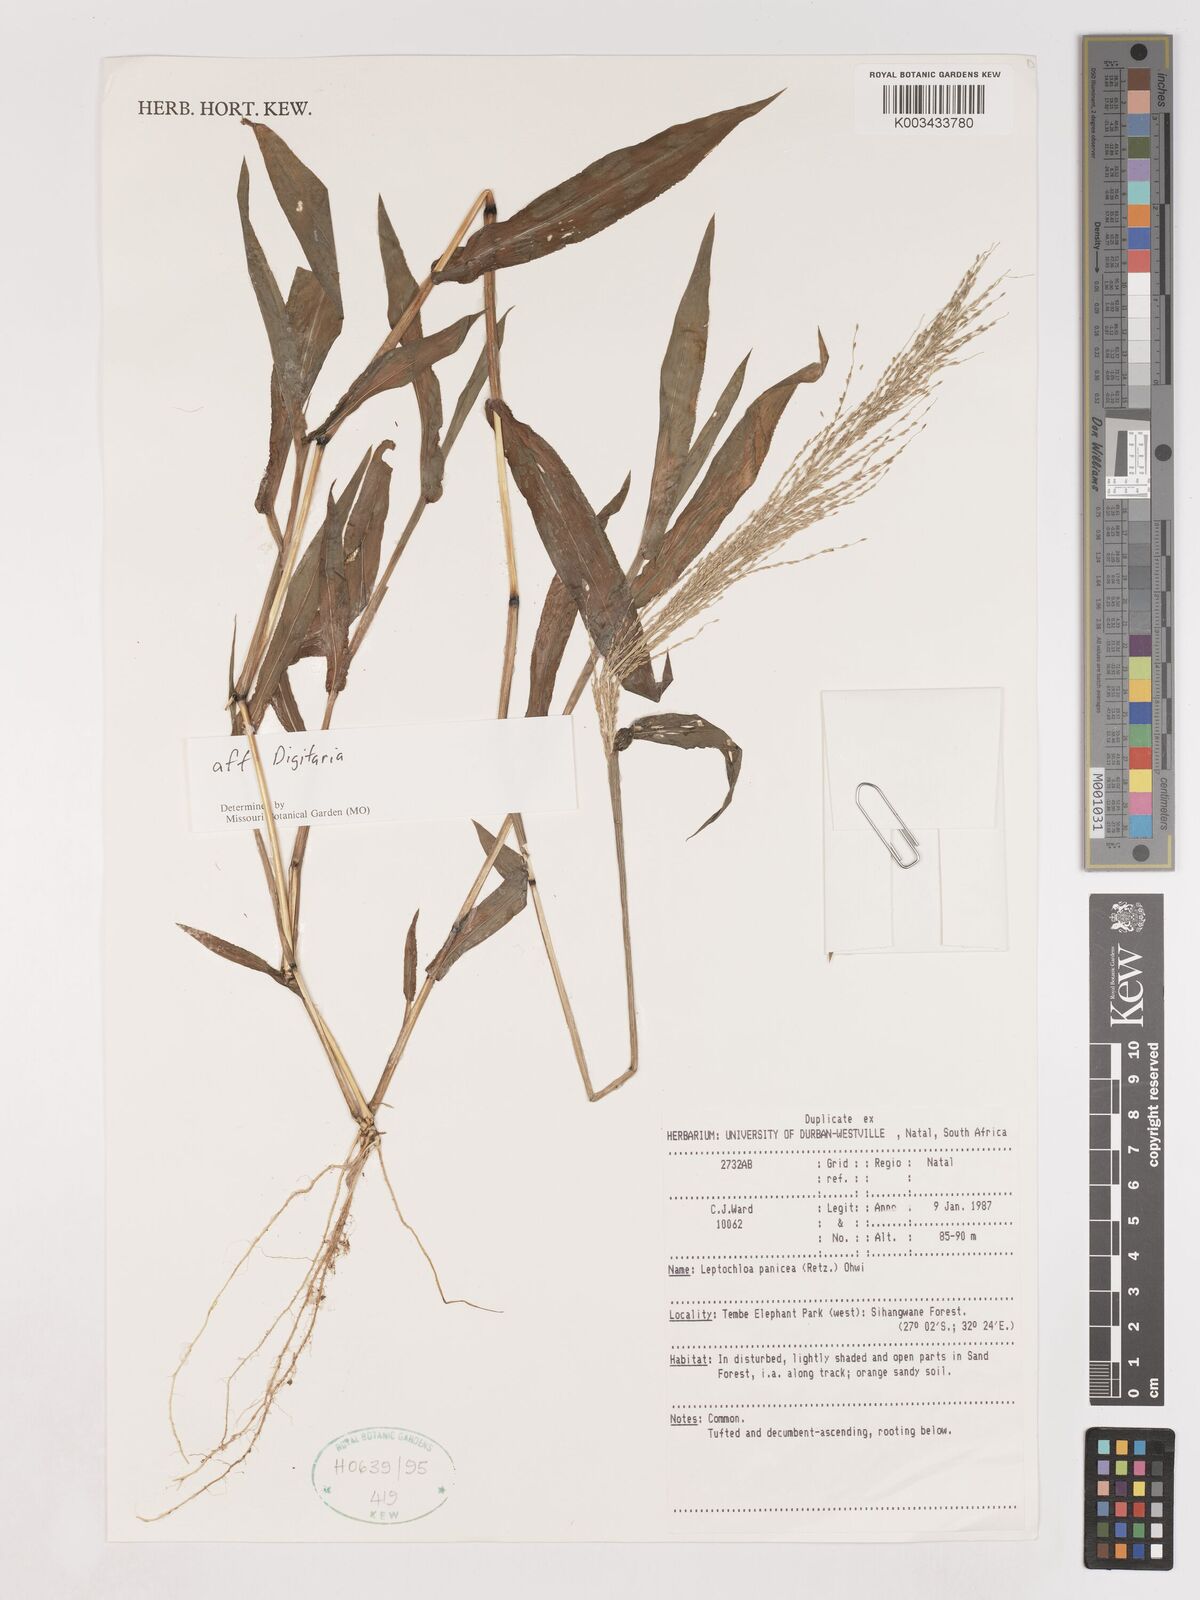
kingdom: Plantae
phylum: Tracheophyta
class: Liliopsida
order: Poales
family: Poaceae
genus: Digitaria
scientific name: Digitaria spec
